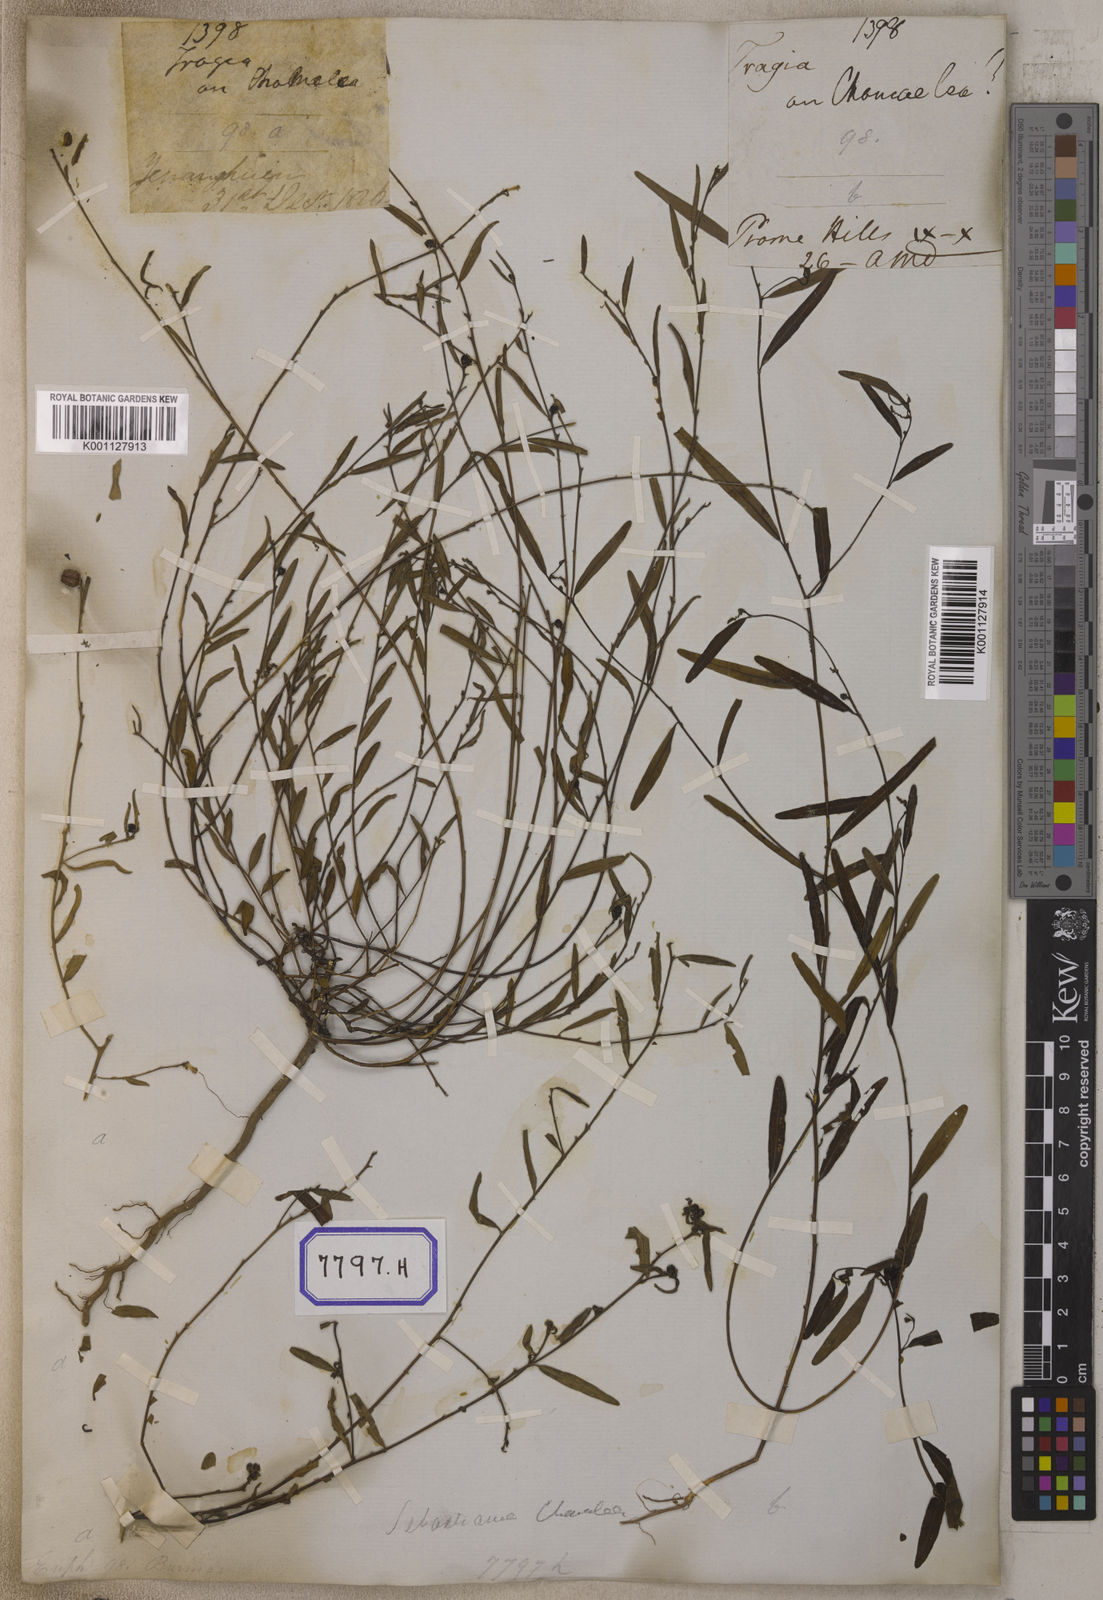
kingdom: Plantae
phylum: Tracheophyta
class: Magnoliopsida
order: Malpighiales
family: Euphorbiaceae
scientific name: Euphorbiaceae
